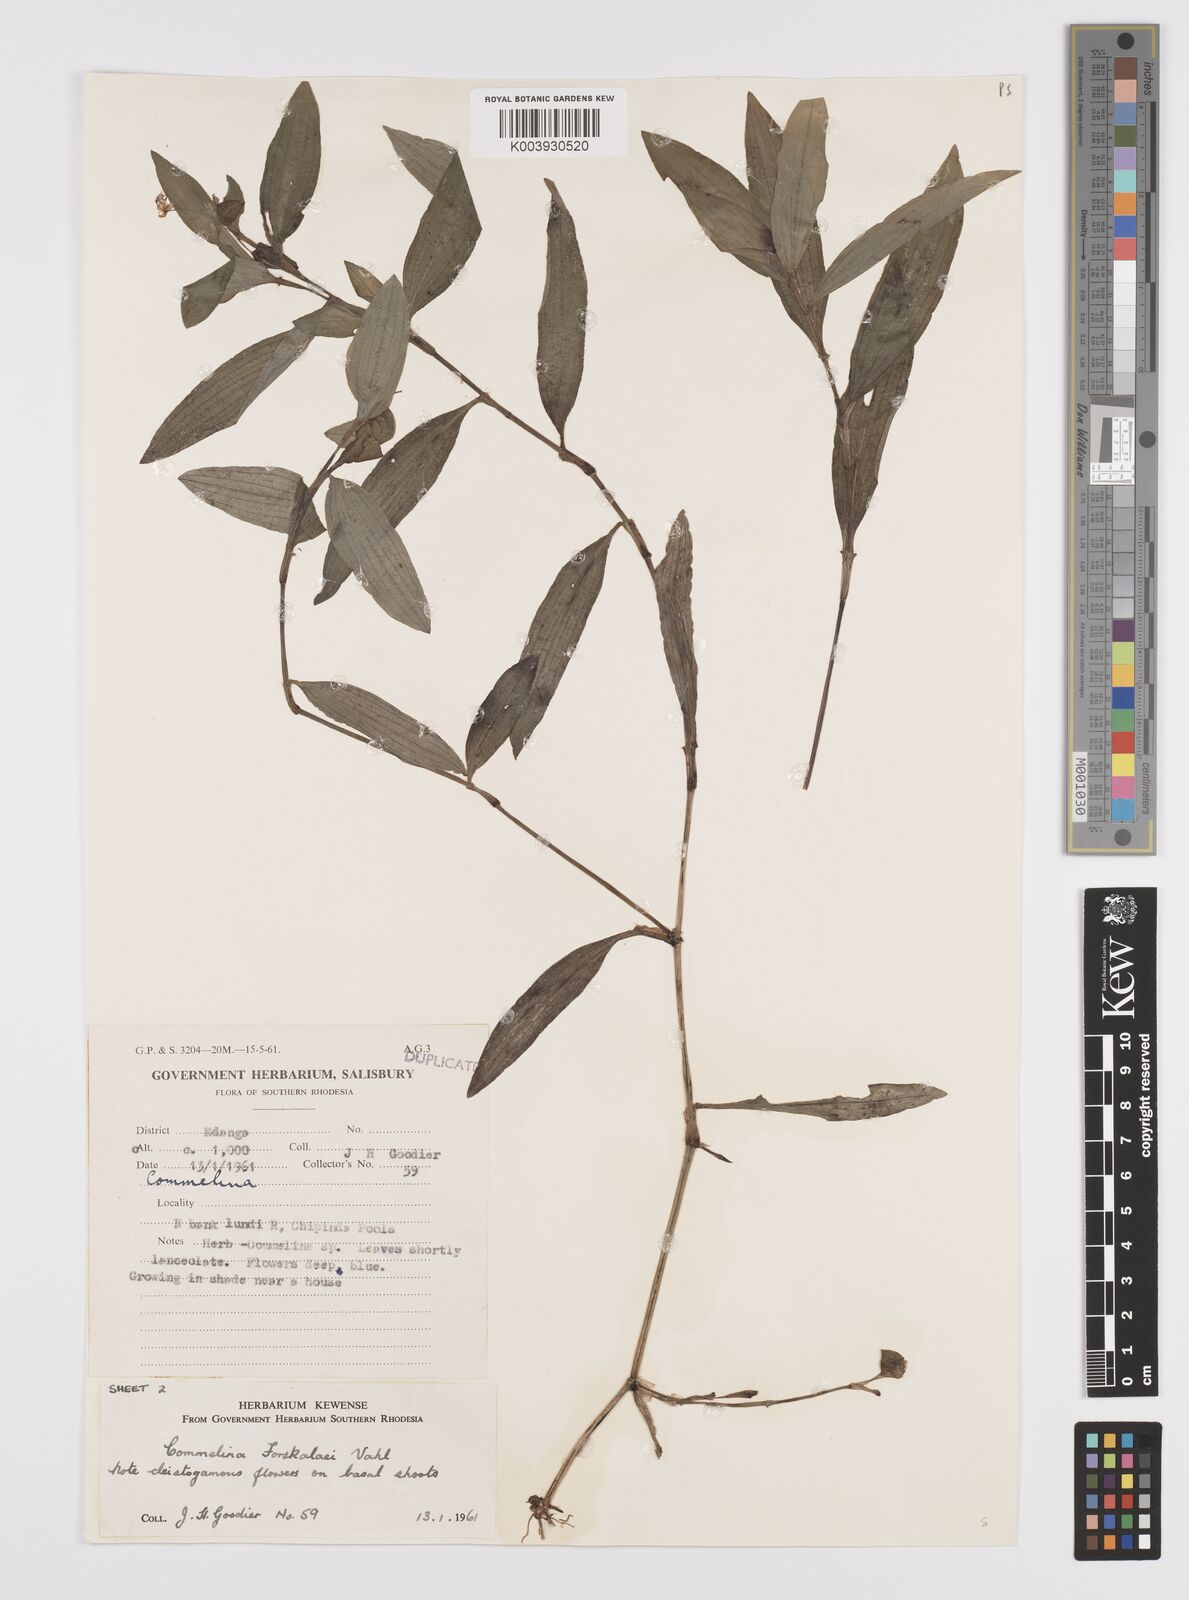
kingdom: Plantae
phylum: Tracheophyta
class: Liliopsida
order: Commelinales
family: Commelinaceae
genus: Commelina
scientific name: Commelina forskaolii
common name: Rat's ear
